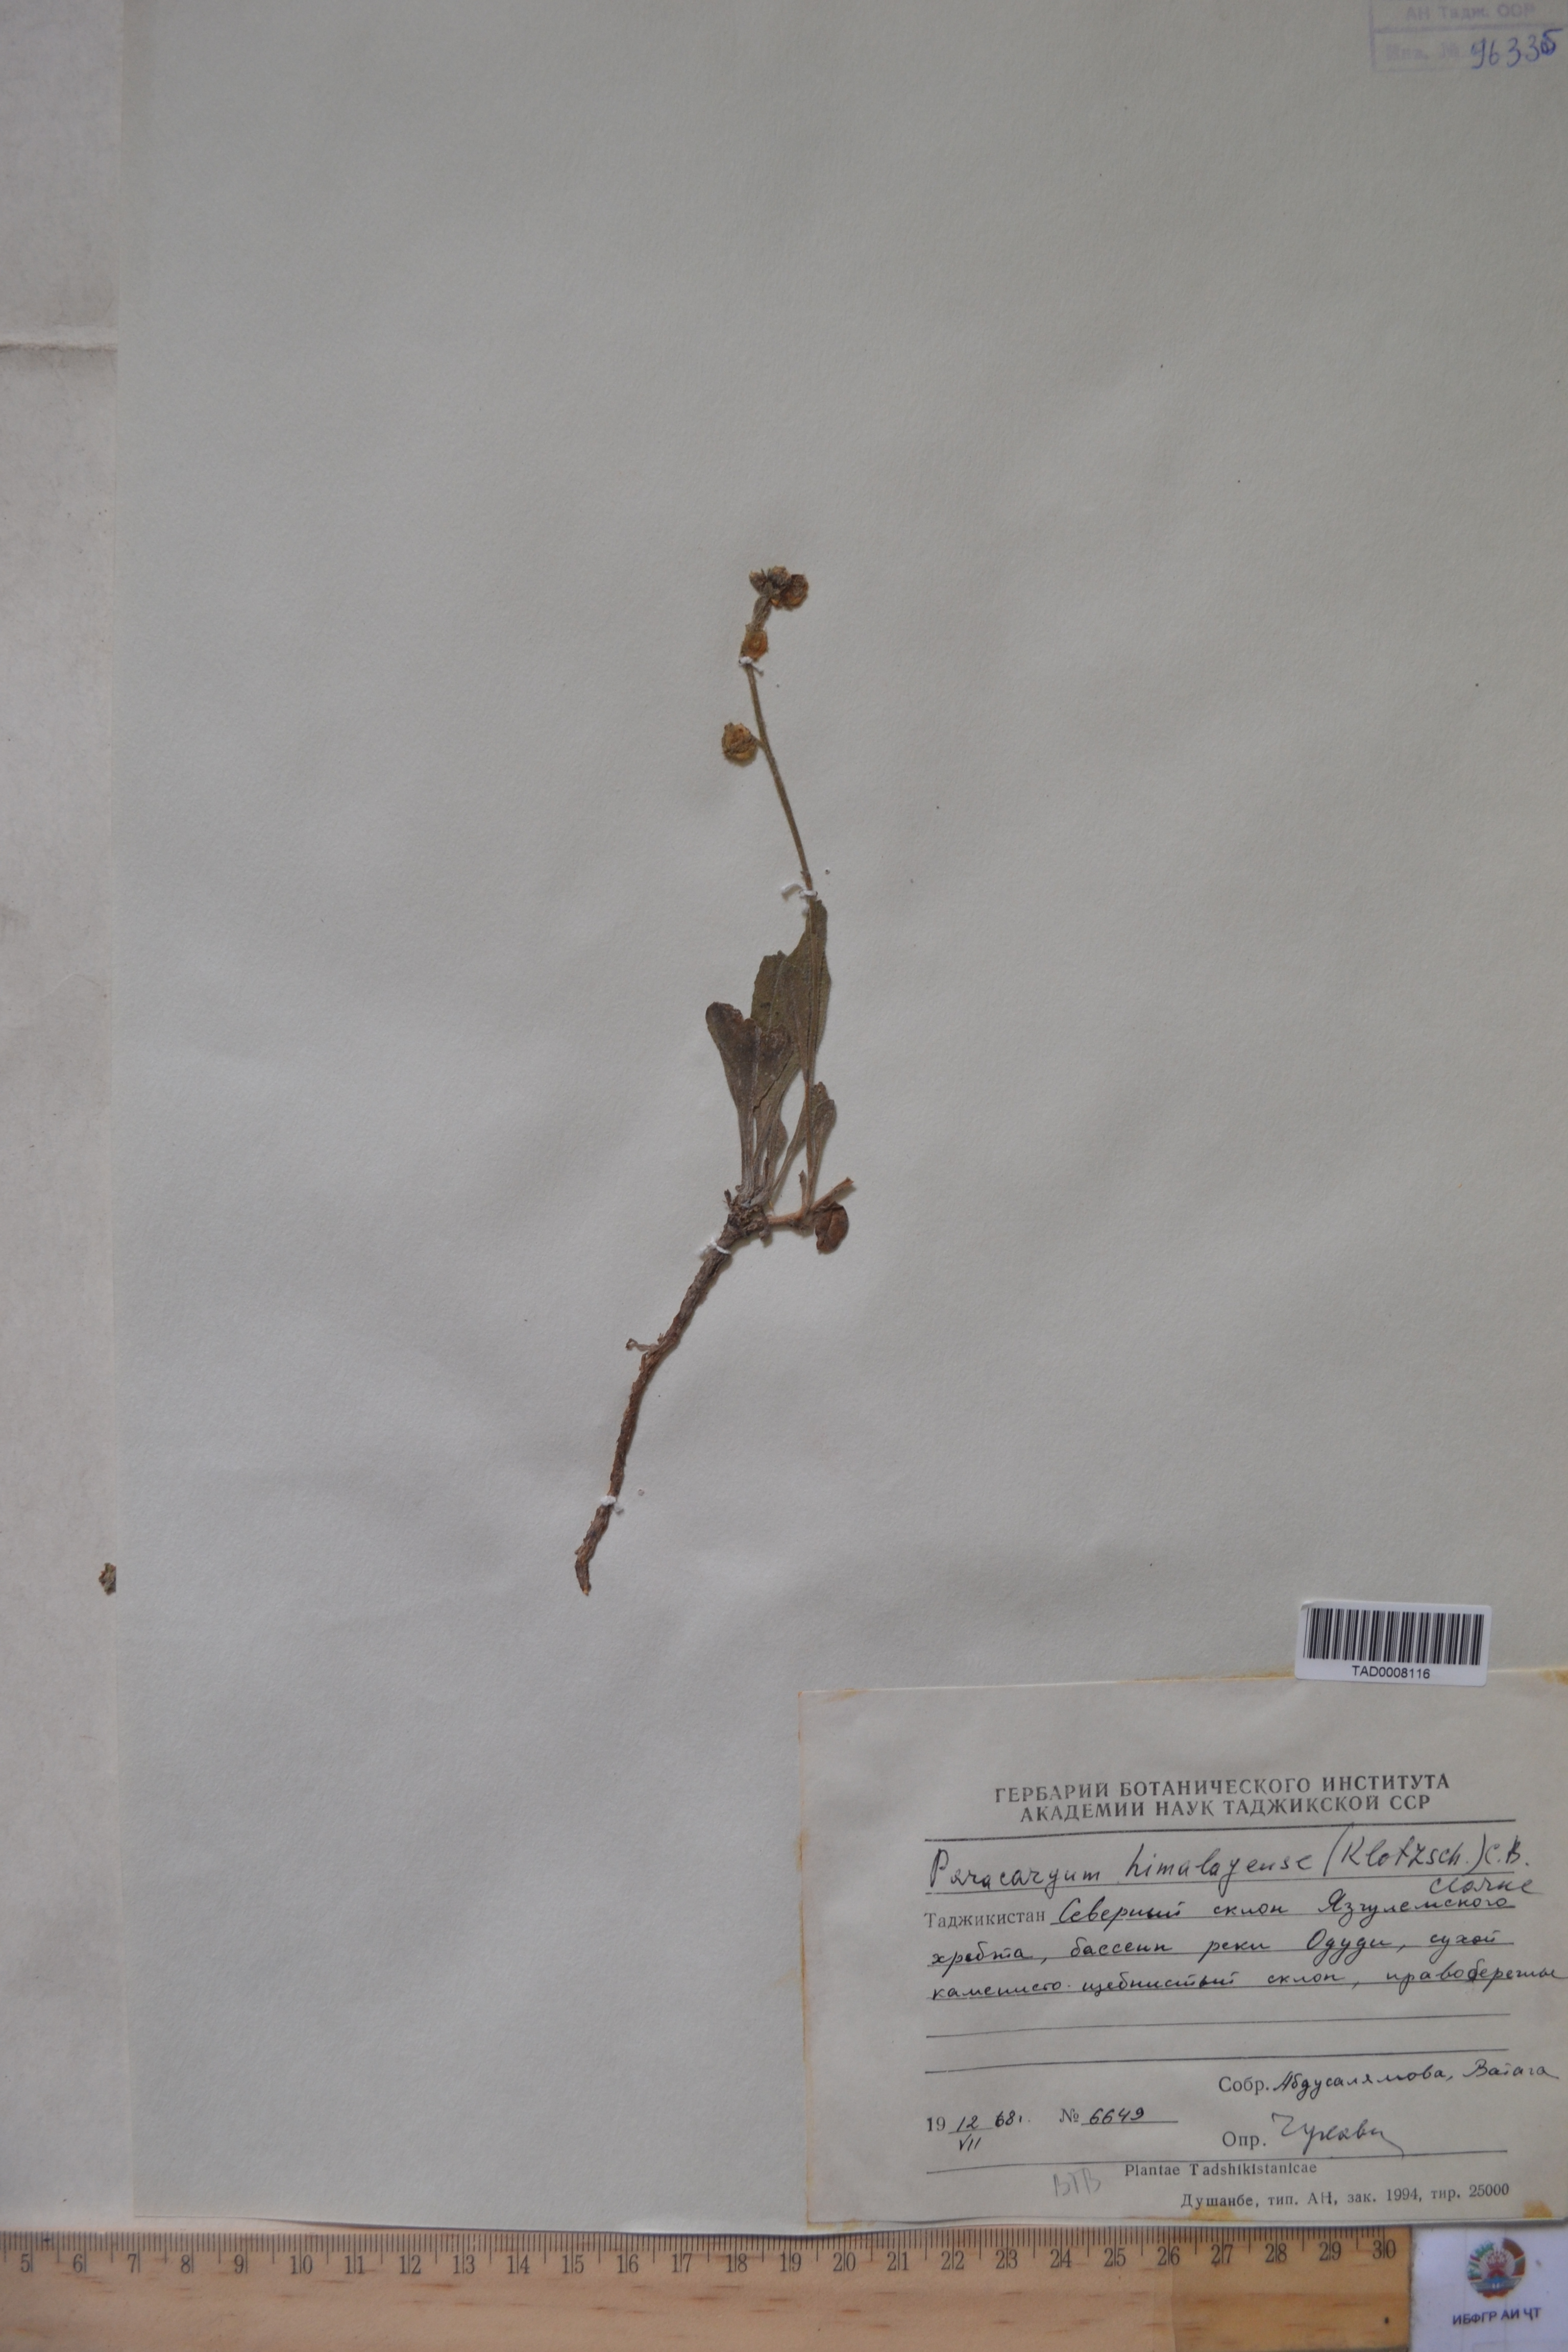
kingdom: Plantae
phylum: Tracheophyta
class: Magnoliopsida
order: Boraginales
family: Boraginaceae
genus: Paracaryum
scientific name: Paracaryum himalayense
